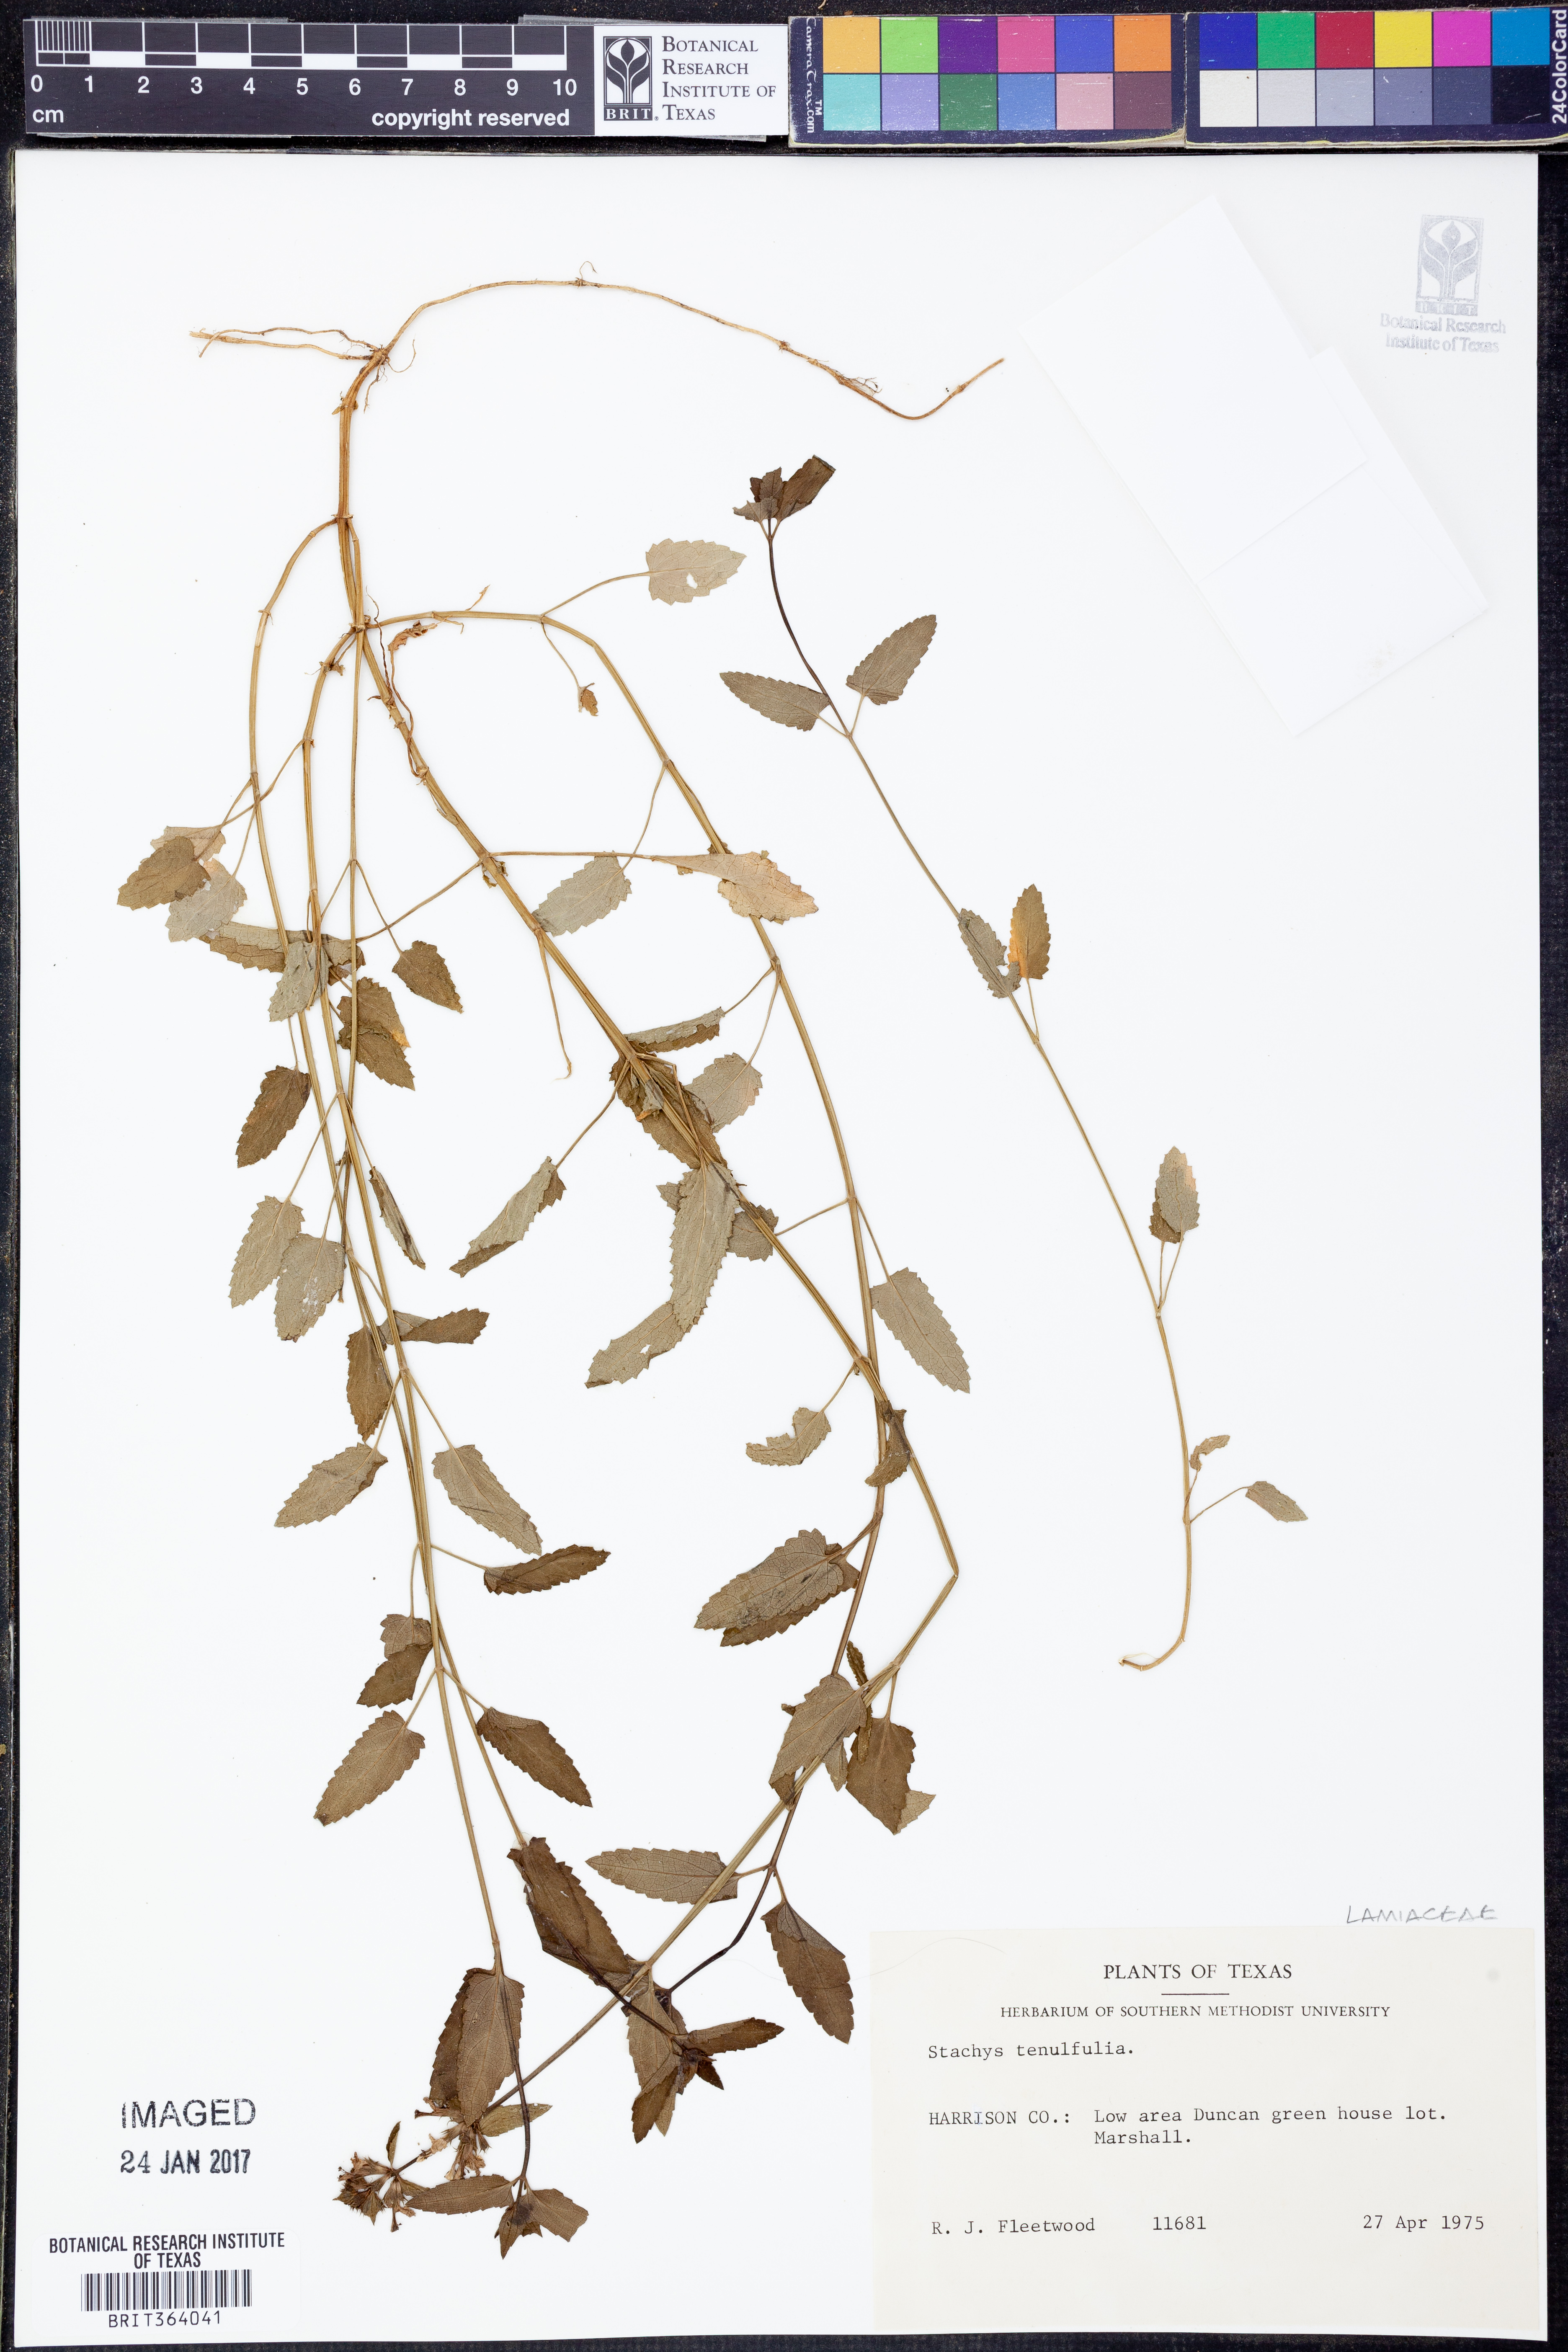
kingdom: Plantae
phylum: Tracheophyta
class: Magnoliopsida
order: Lamiales
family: Lamiaceae
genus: Stachys
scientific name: Stachys tenuifolia
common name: Smooth hedge-nettle
